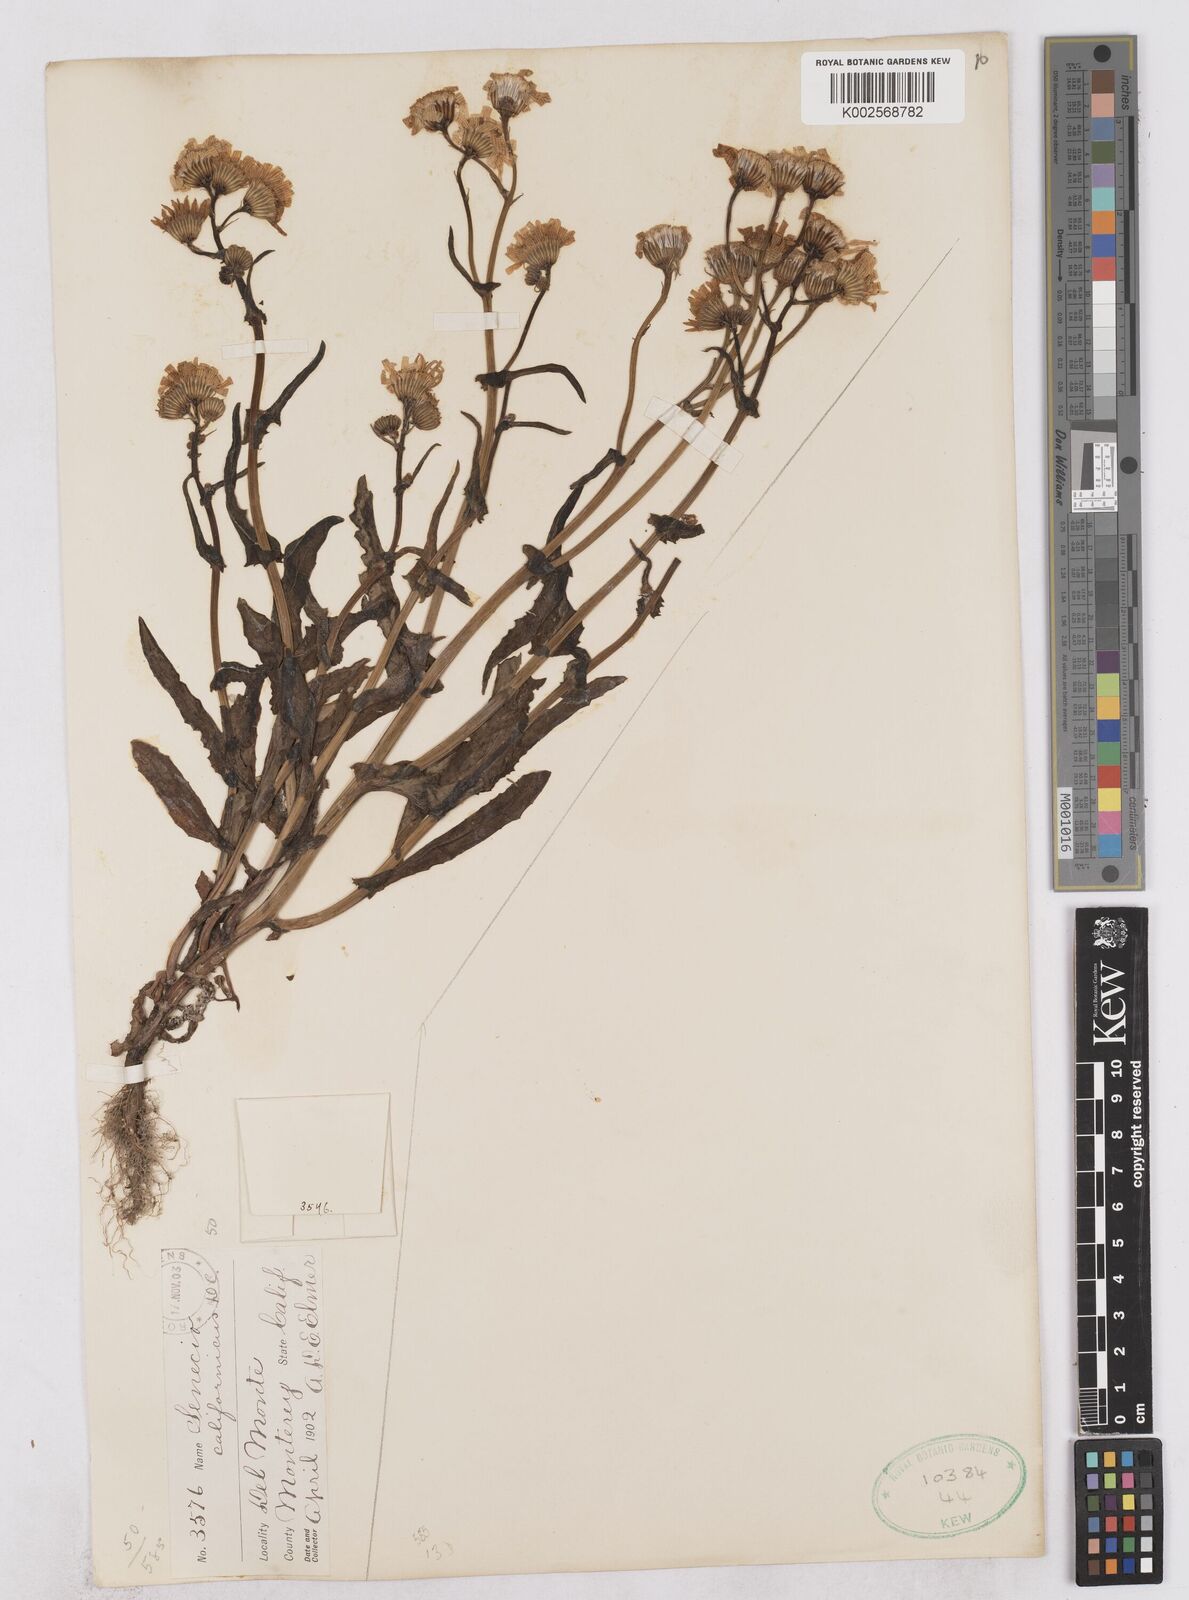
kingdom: Plantae
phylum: Tracheophyta
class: Magnoliopsida
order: Asterales
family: Asteraceae
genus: Senecio
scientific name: Senecio californicus
